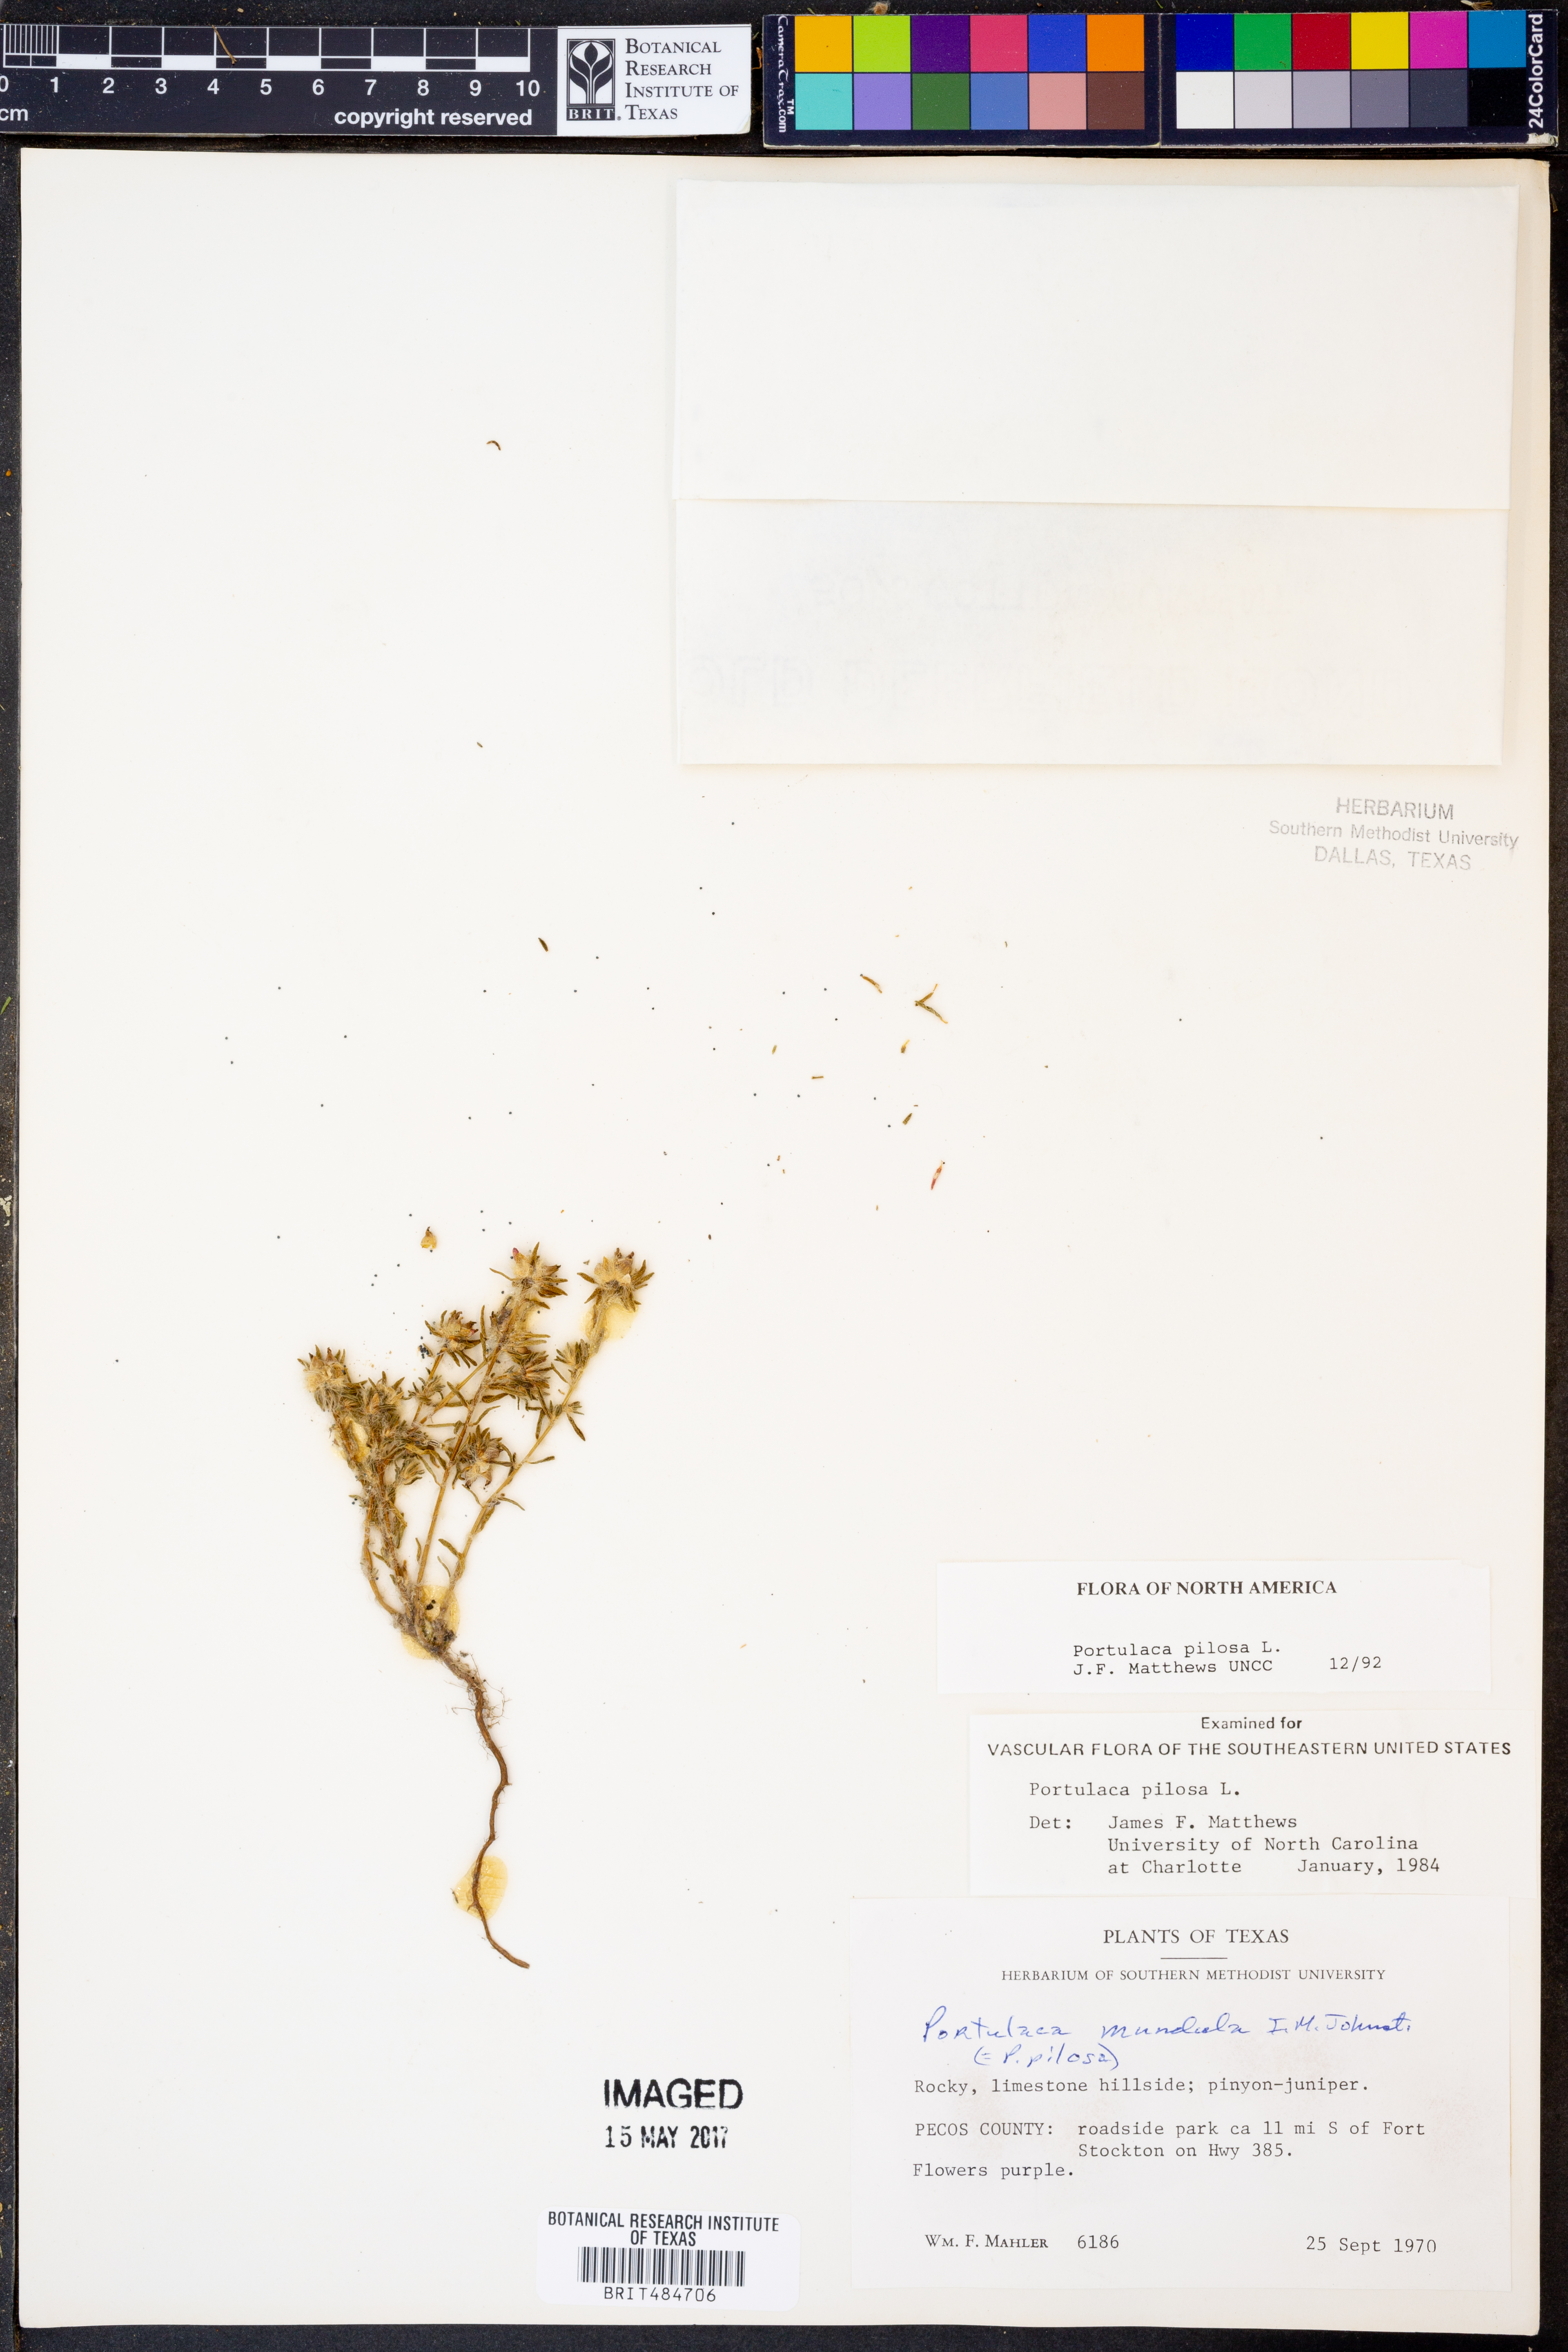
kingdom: Plantae
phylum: Tracheophyta
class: Magnoliopsida
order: Caryophyllales
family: Portulacaceae
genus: Portulaca
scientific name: Portulaca pilosa
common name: Kiss me quick
